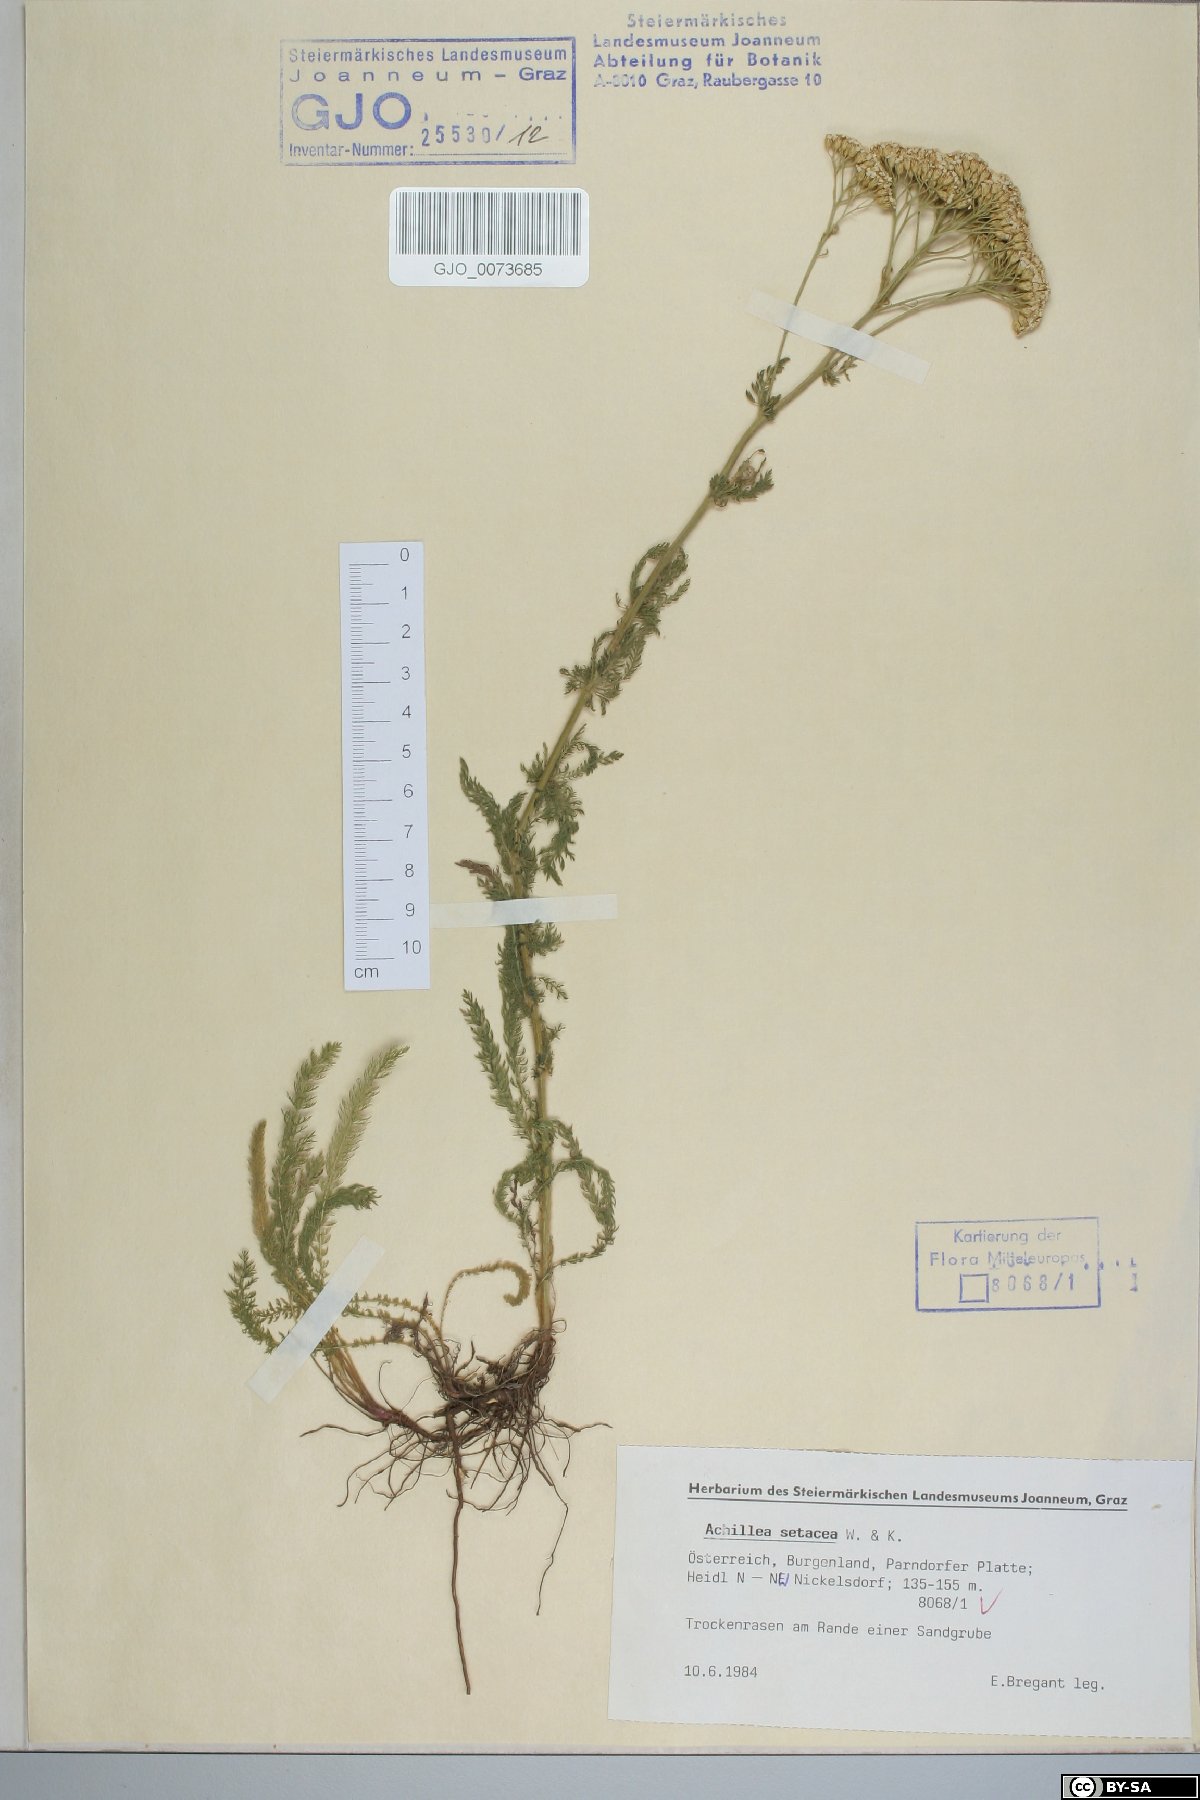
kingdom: Plantae
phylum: Tracheophyta
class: Magnoliopsida
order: Asterales
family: Asteraceae
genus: Achillea
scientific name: Achillea setacea
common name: Bristly yarrow
